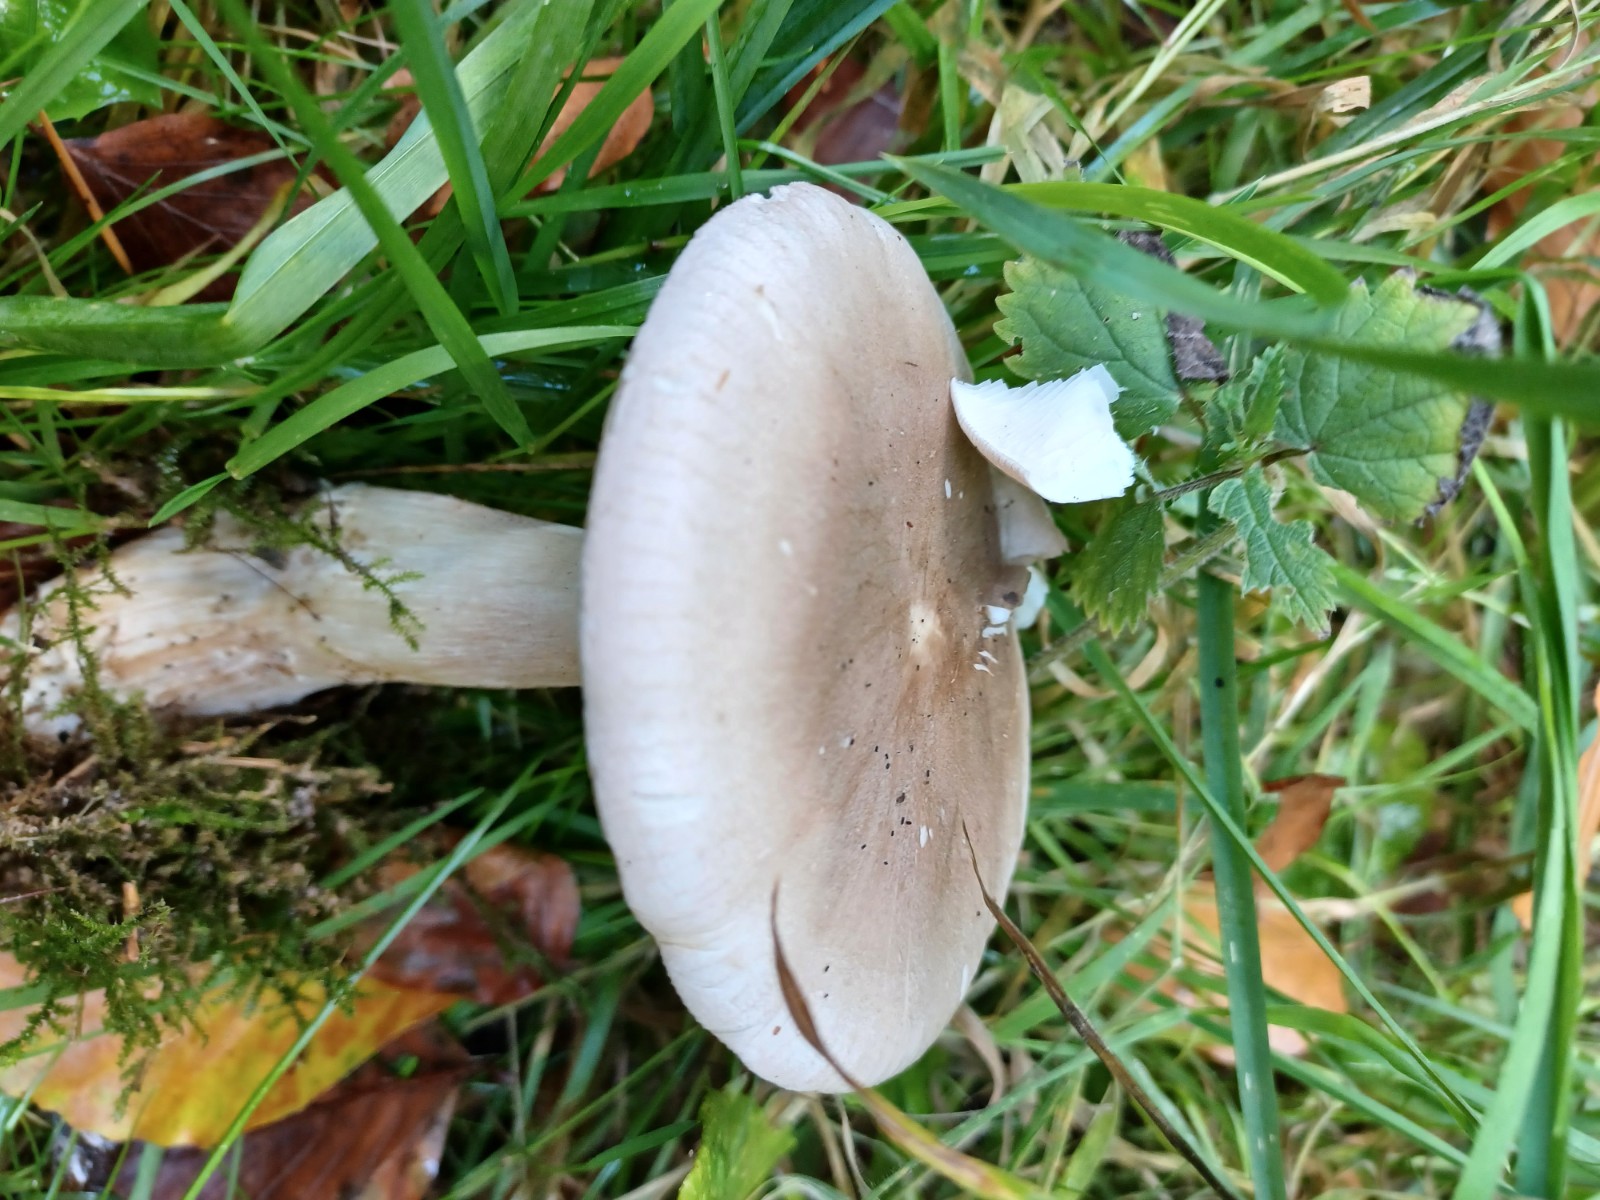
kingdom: Fungi
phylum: Basidiomycota
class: Agaricomycetes
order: Agaricales
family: Tricholomataceae
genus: Infundibulicybe
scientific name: Infundibulicybe geotropa
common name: stor tragthat
